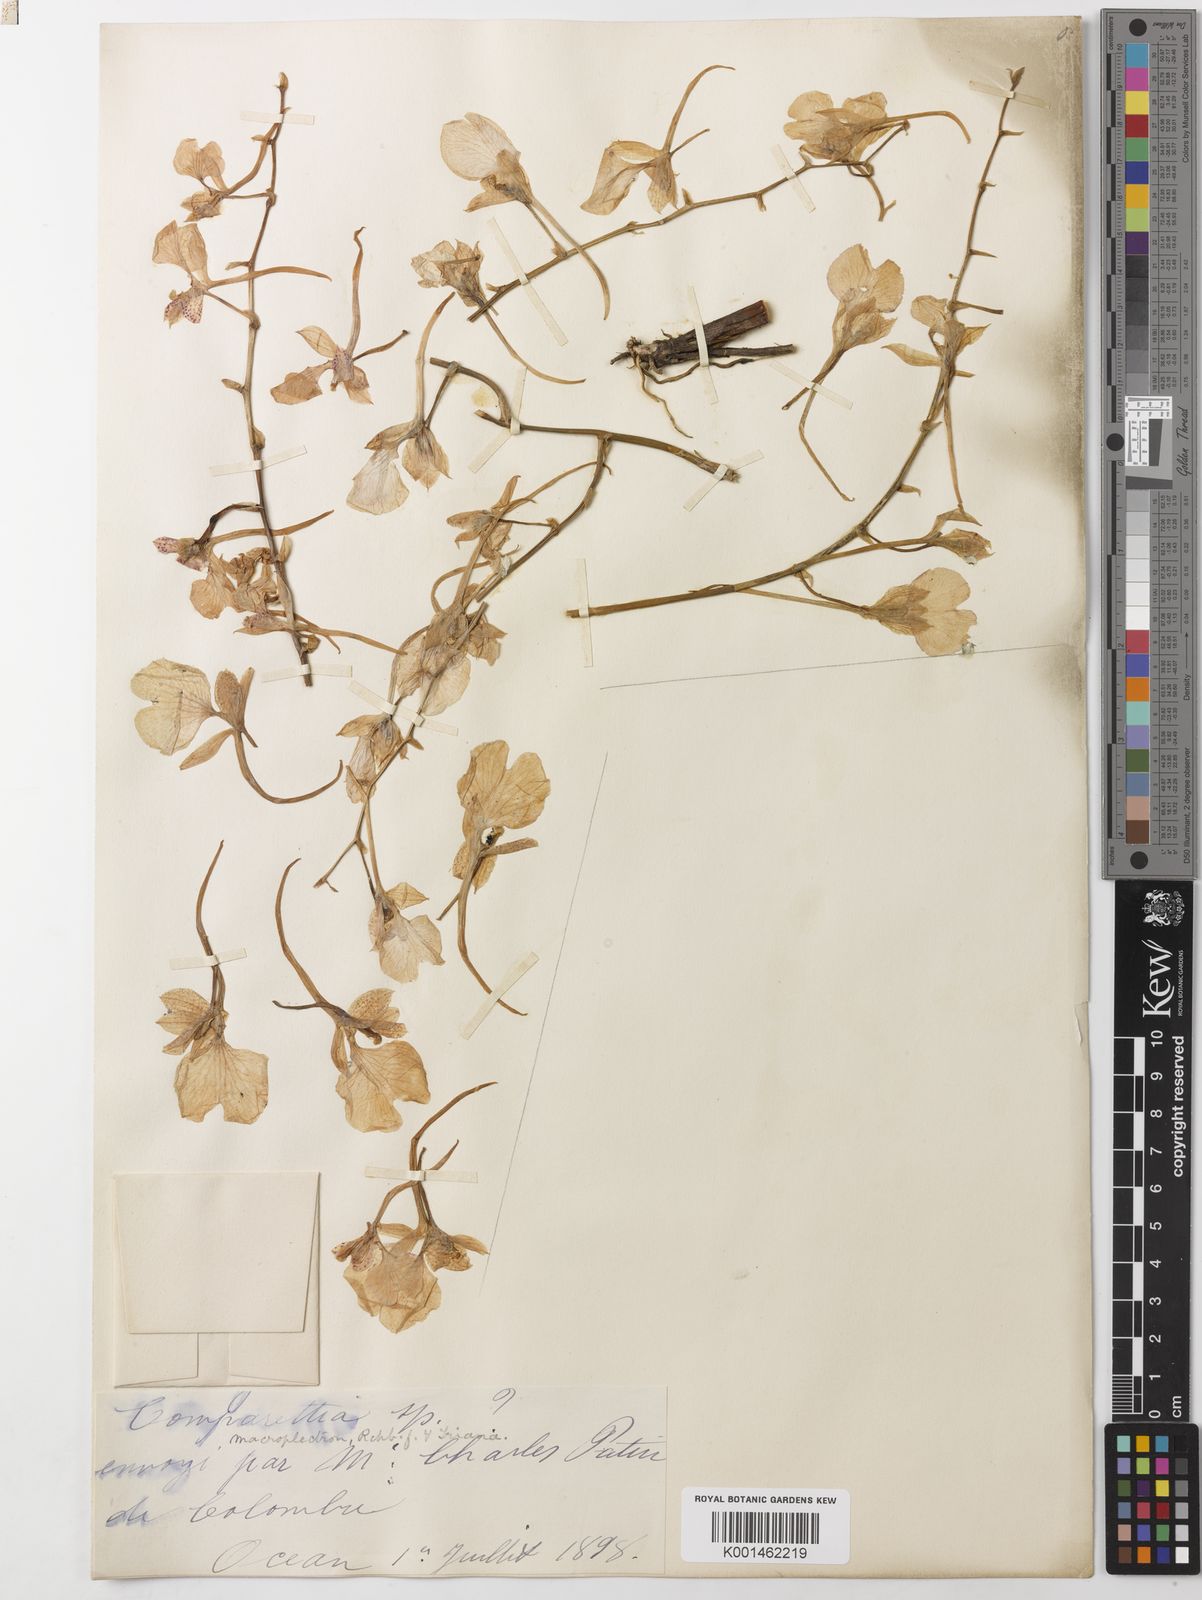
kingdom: Plantae
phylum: Tracheophyta
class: Liliopsida
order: Asparagales
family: Orchidaceae
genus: Comparettia
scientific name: Comparettia macroplectron
